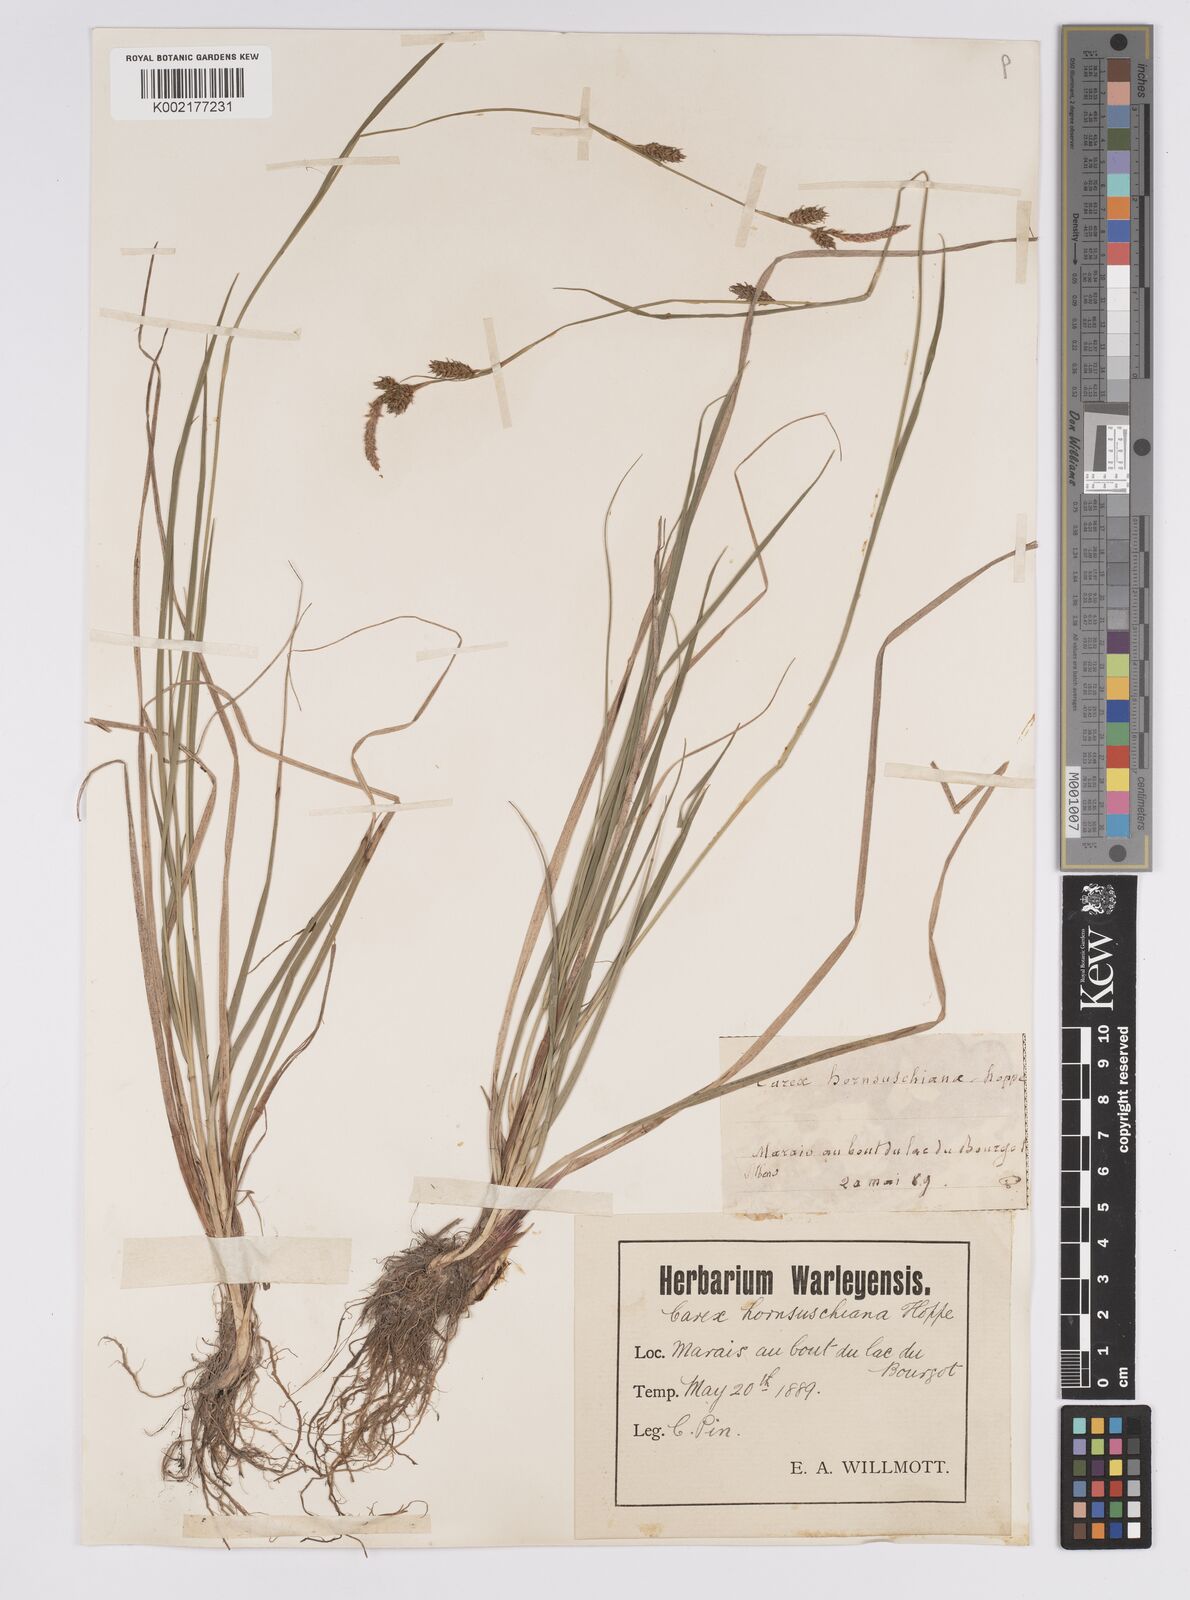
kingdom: Plantae
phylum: Tracheophyta
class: Liliopsida
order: Poales
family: Cyperaceae
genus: Carex
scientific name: Carex hostiana
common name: Tawny sedge
